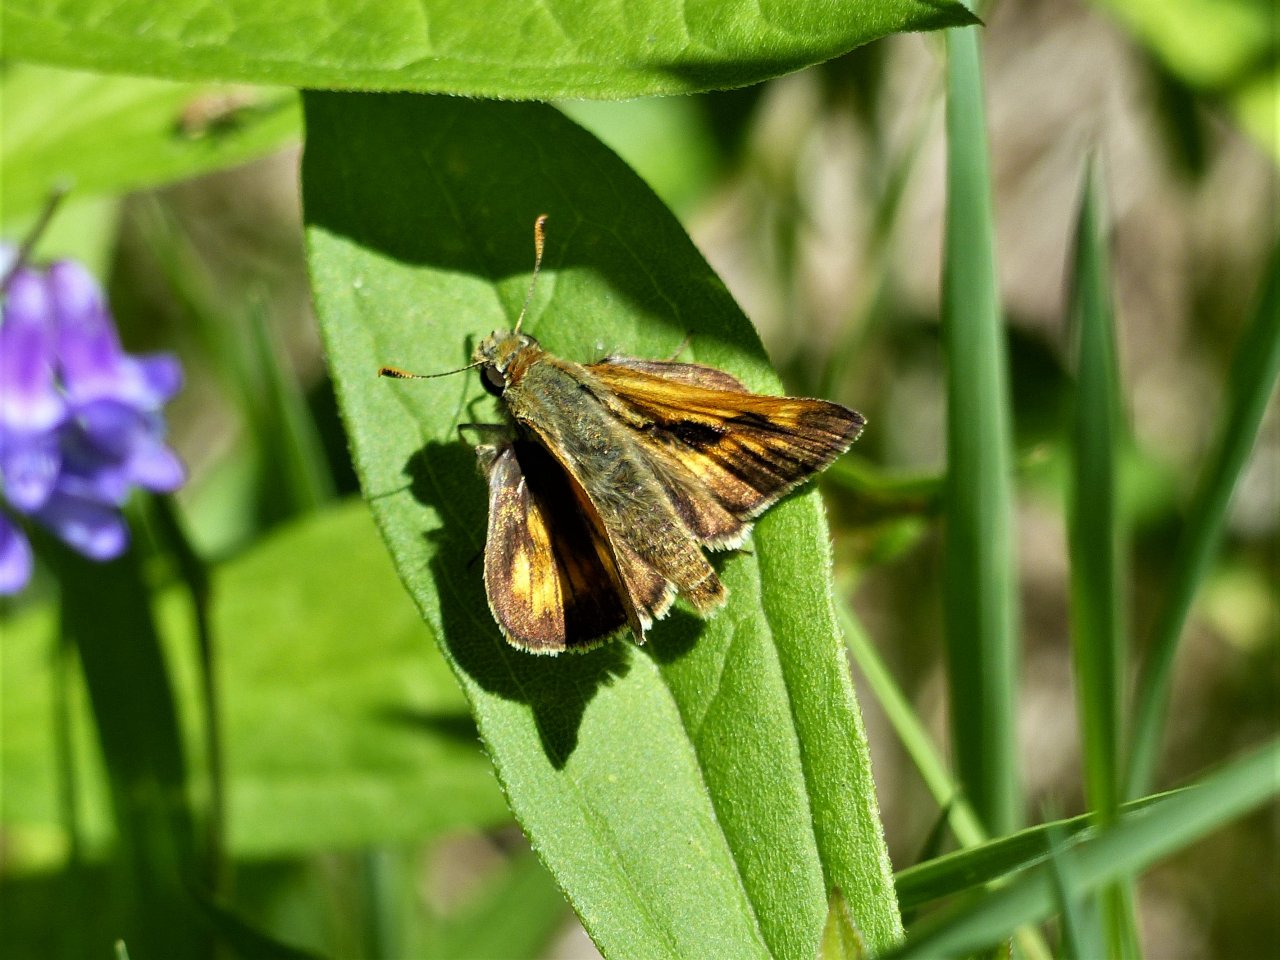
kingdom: Animalia
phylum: Arthropoda
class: Insecta
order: Lepidoptera
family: Hesperiidae
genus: Polites
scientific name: Polites
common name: Long Dash Skipper
